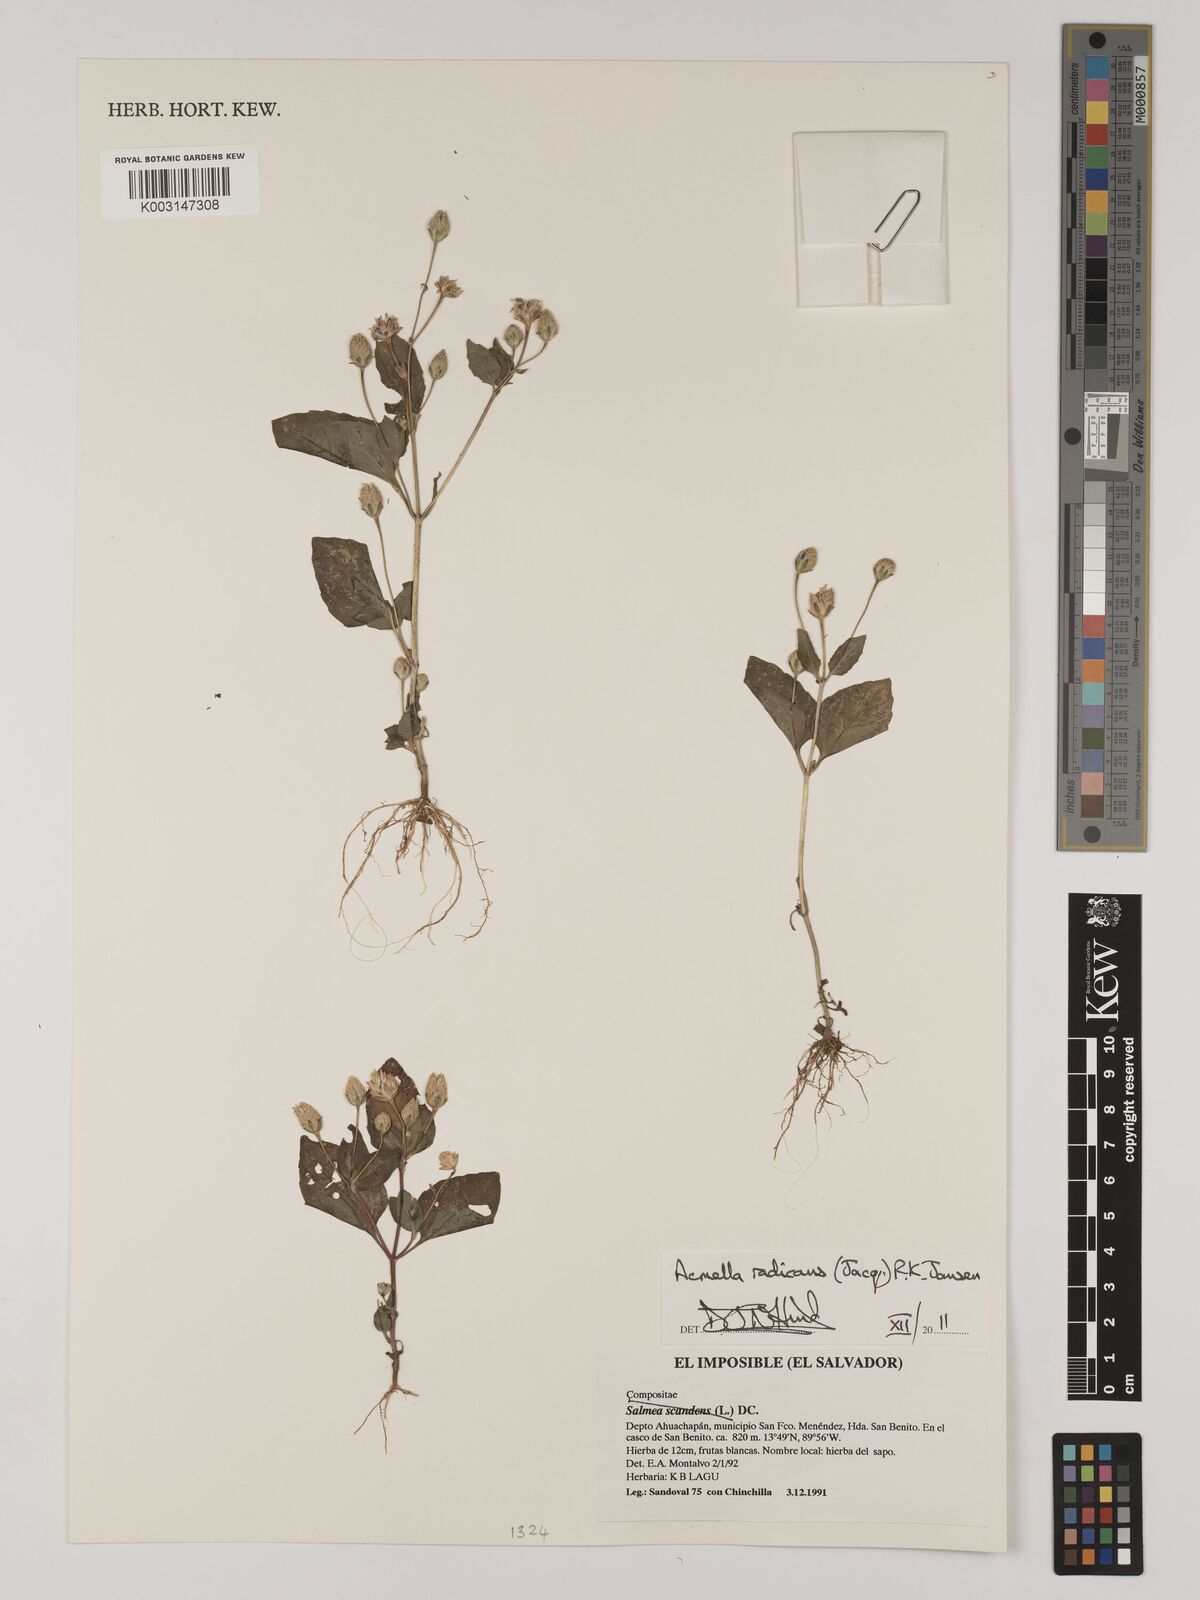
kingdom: Plantae
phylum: Tracheophyta
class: Magnoliopsida
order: Asterales
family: Asteraceae
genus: Acmella
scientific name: Acmella radicans
